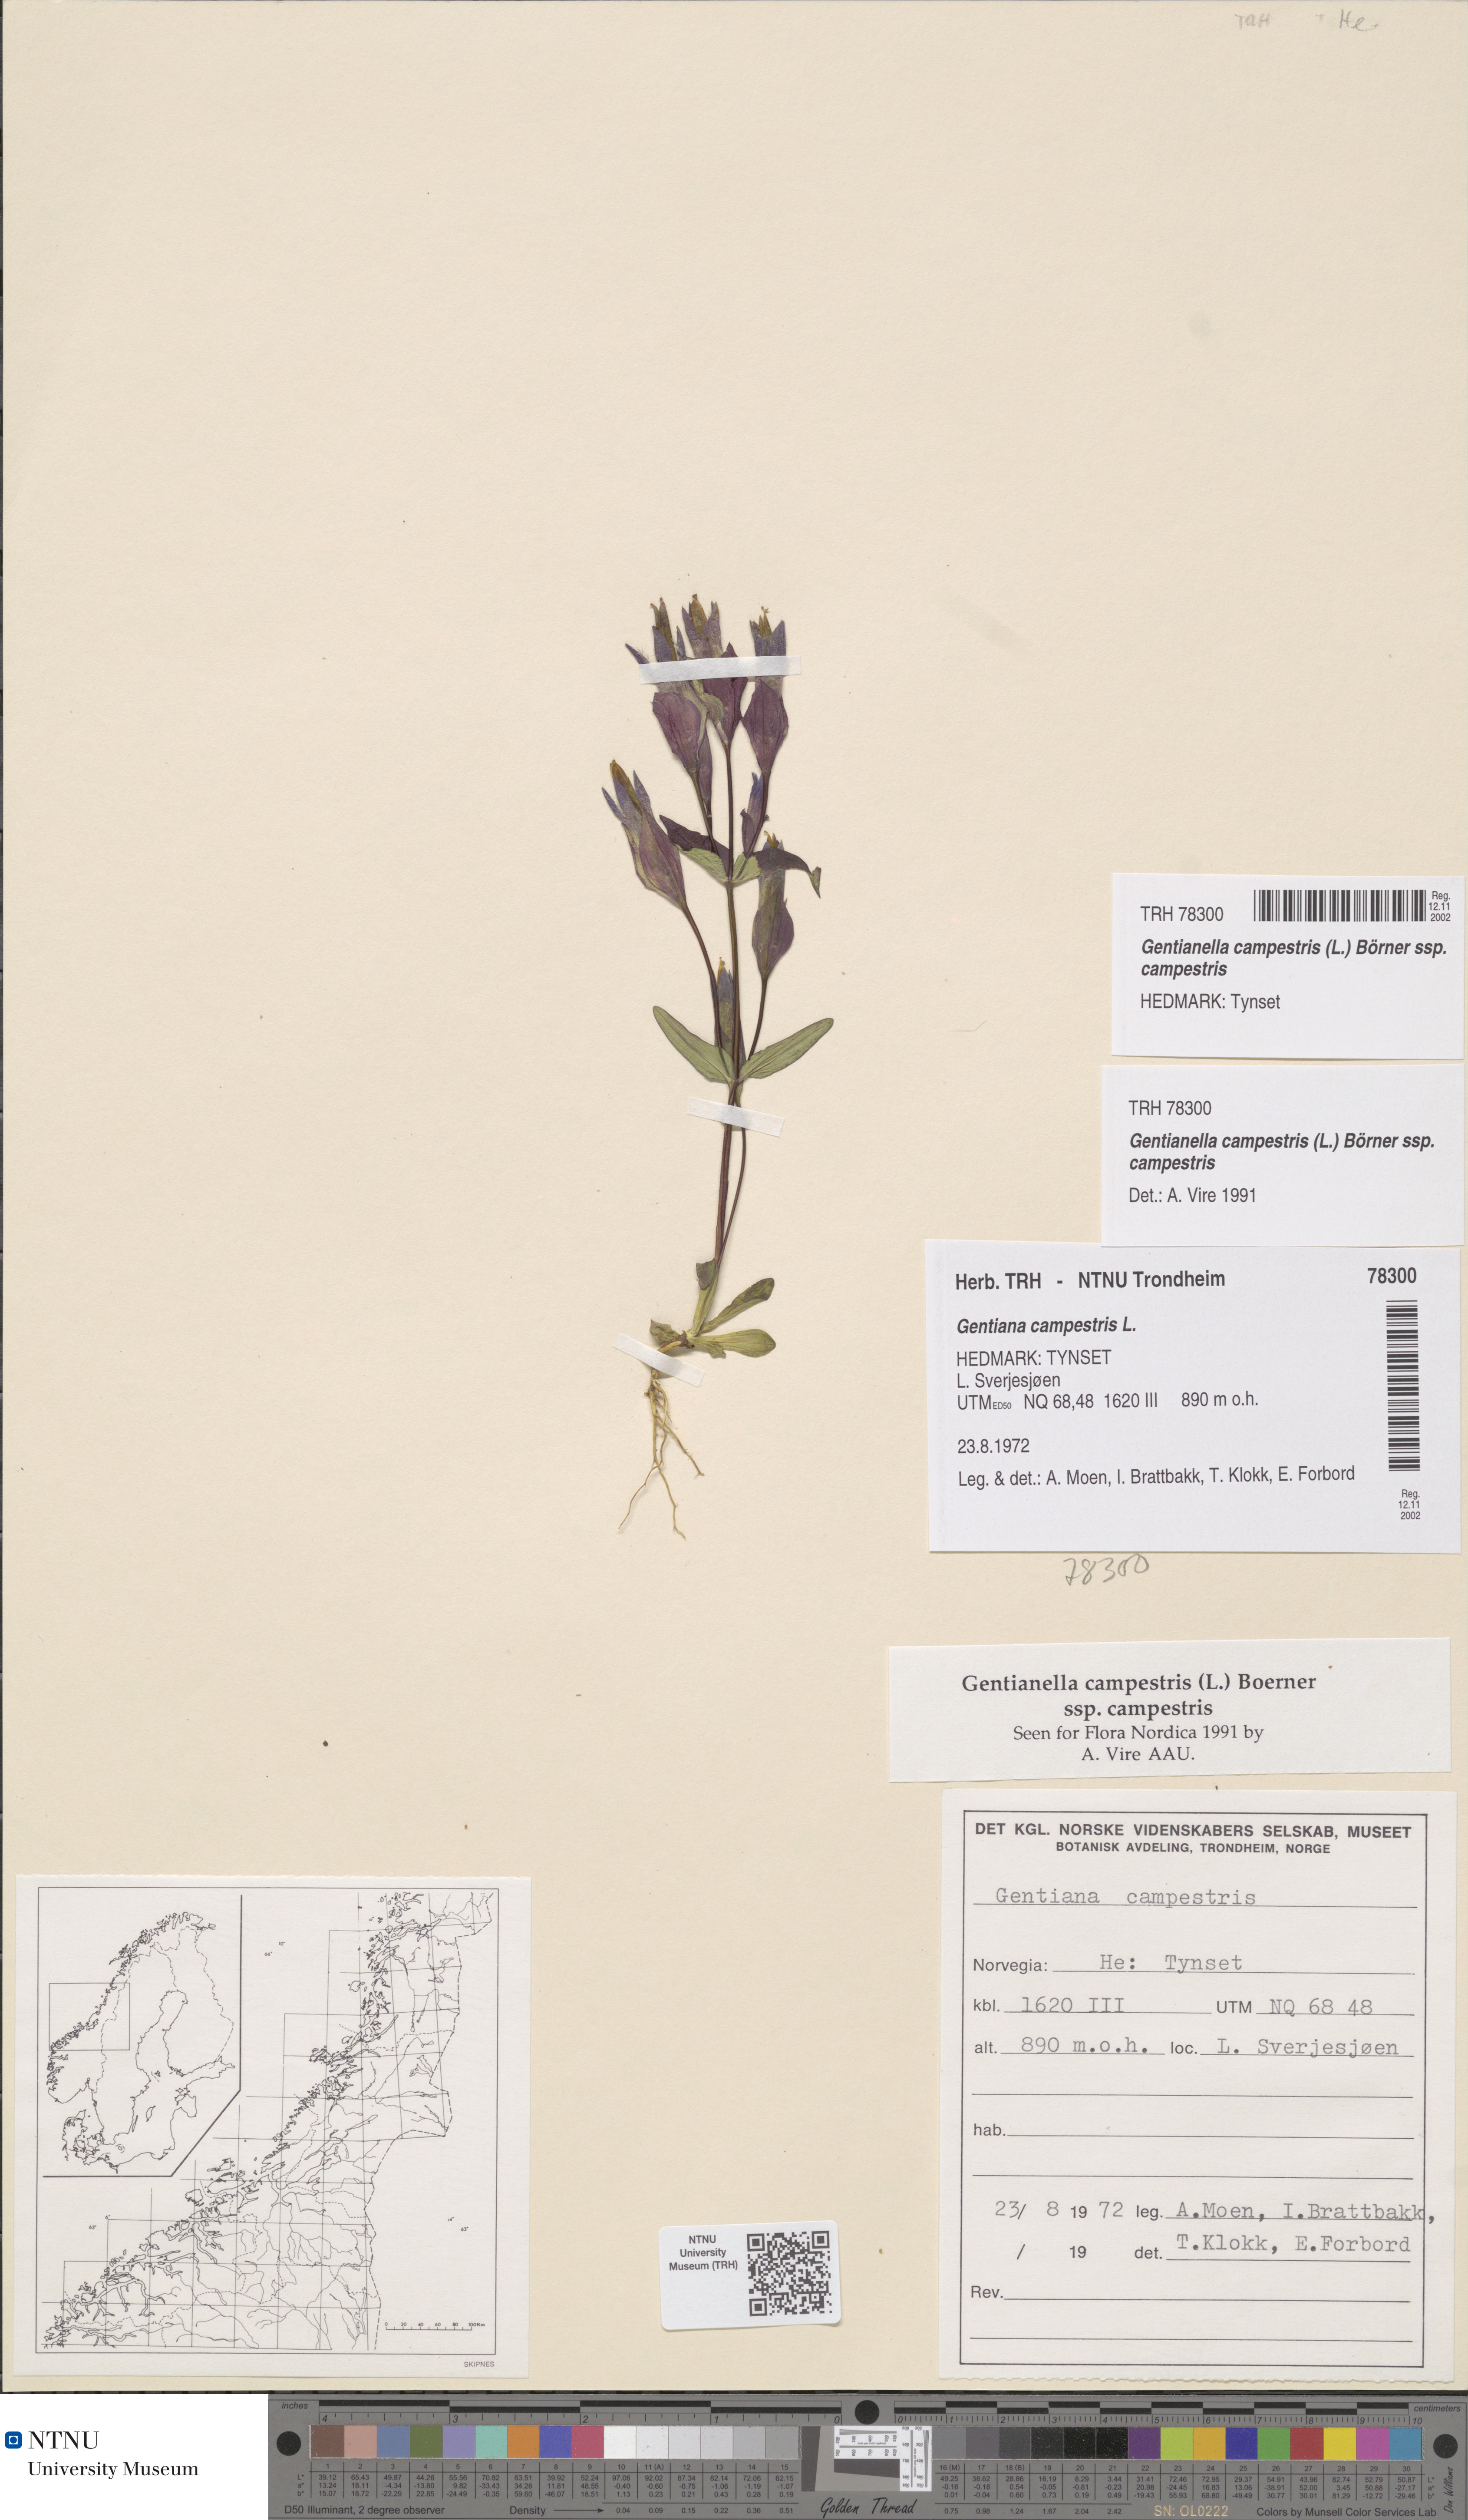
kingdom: Plantae
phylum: Tracheophyta
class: Magnoliopsida
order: Gentianales
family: Gentianaceae
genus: Gentianella
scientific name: Gentianella campestris
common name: Field gentian
